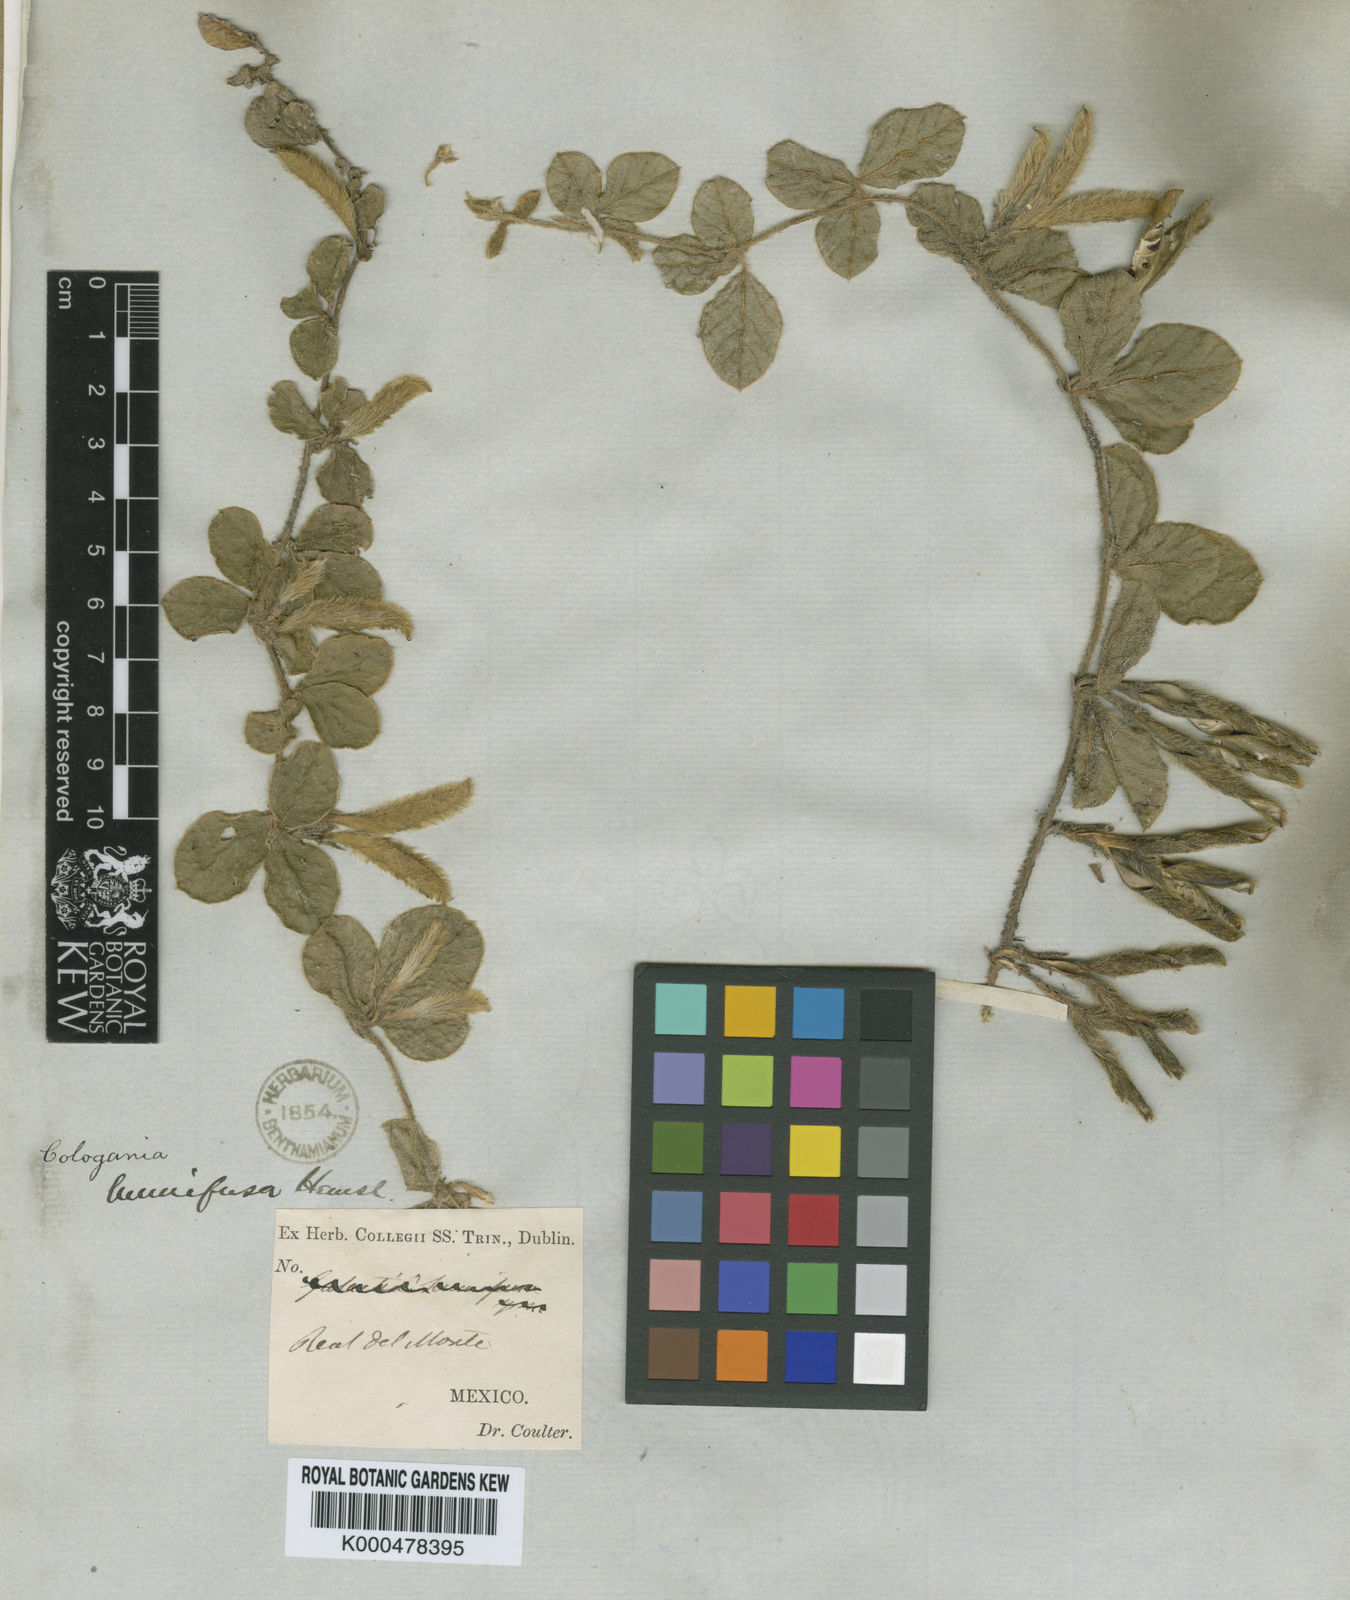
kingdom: Plantae
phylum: Tracheophyta
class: Magnoliopsida
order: Fabales
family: Fabaceae
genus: Cologania
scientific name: Cologania obovata
